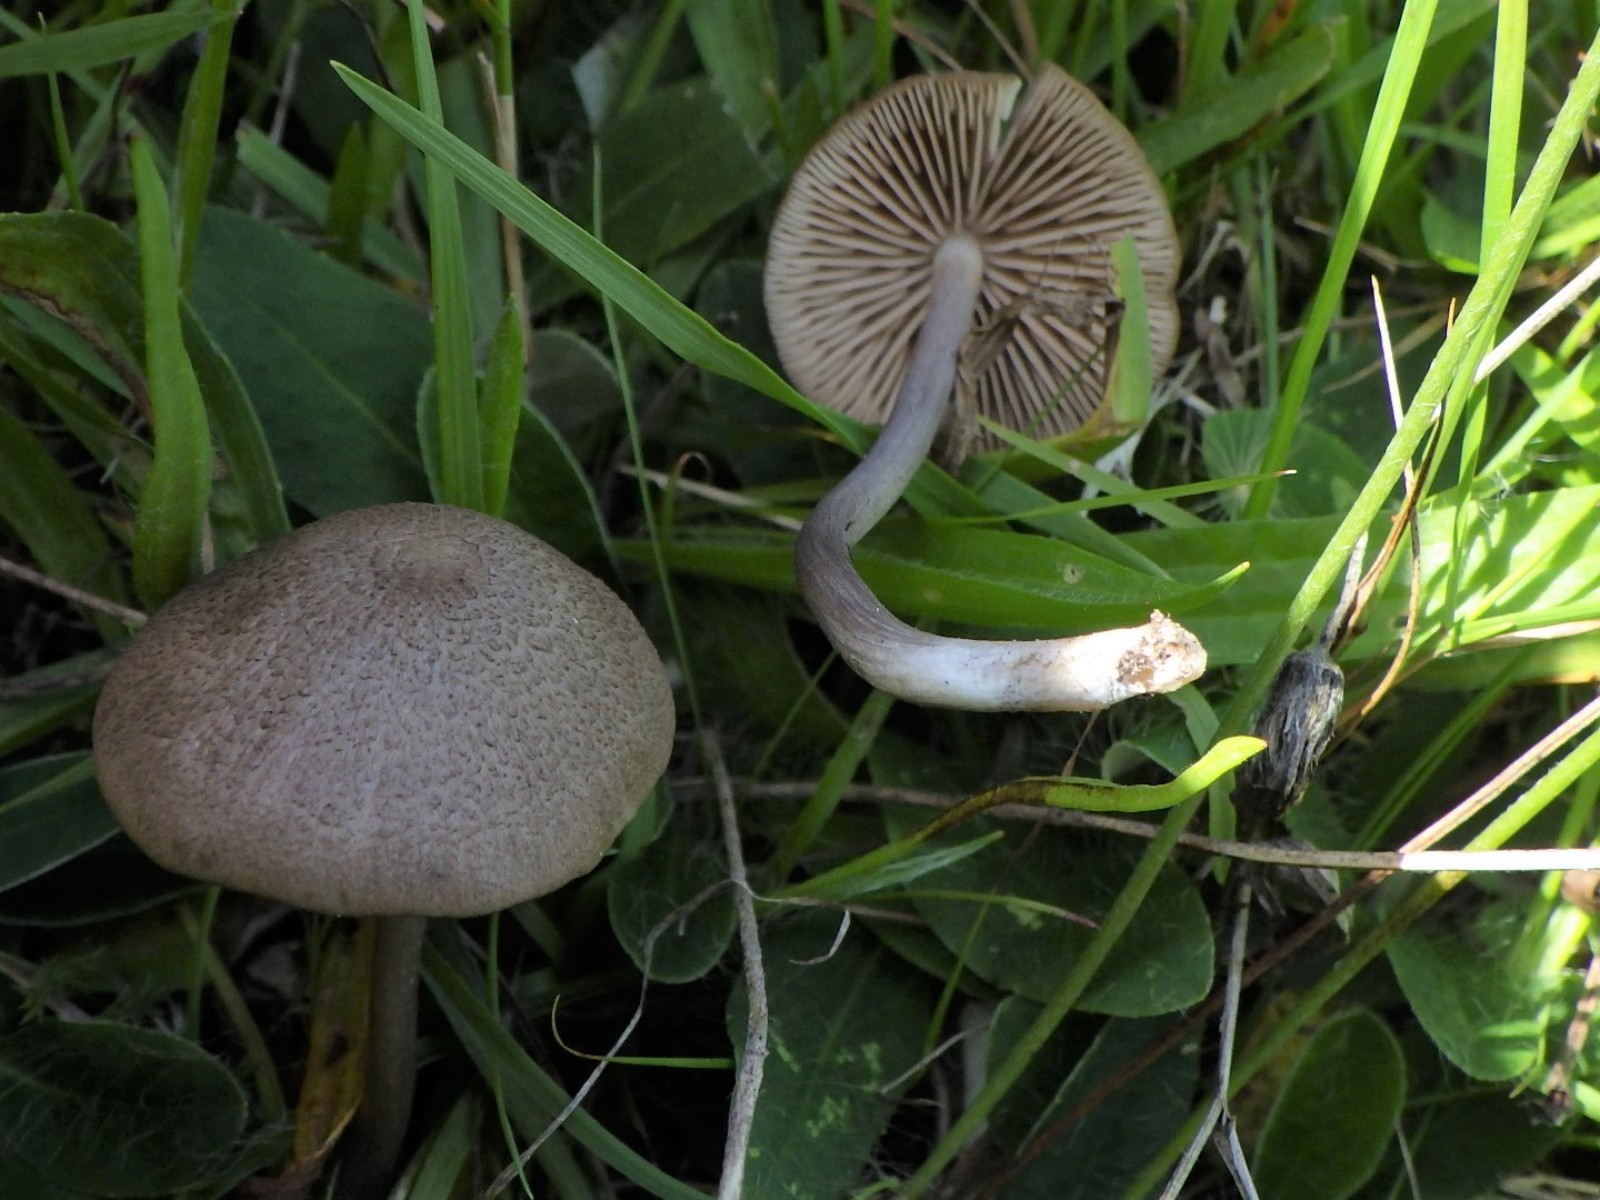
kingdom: Fungi
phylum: Basidiomycota
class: Agaricomycetes
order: Agaricales
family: Entolomataceae
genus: Entoloma
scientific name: Entoloma griseocyaneum
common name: gråblå rødblad
